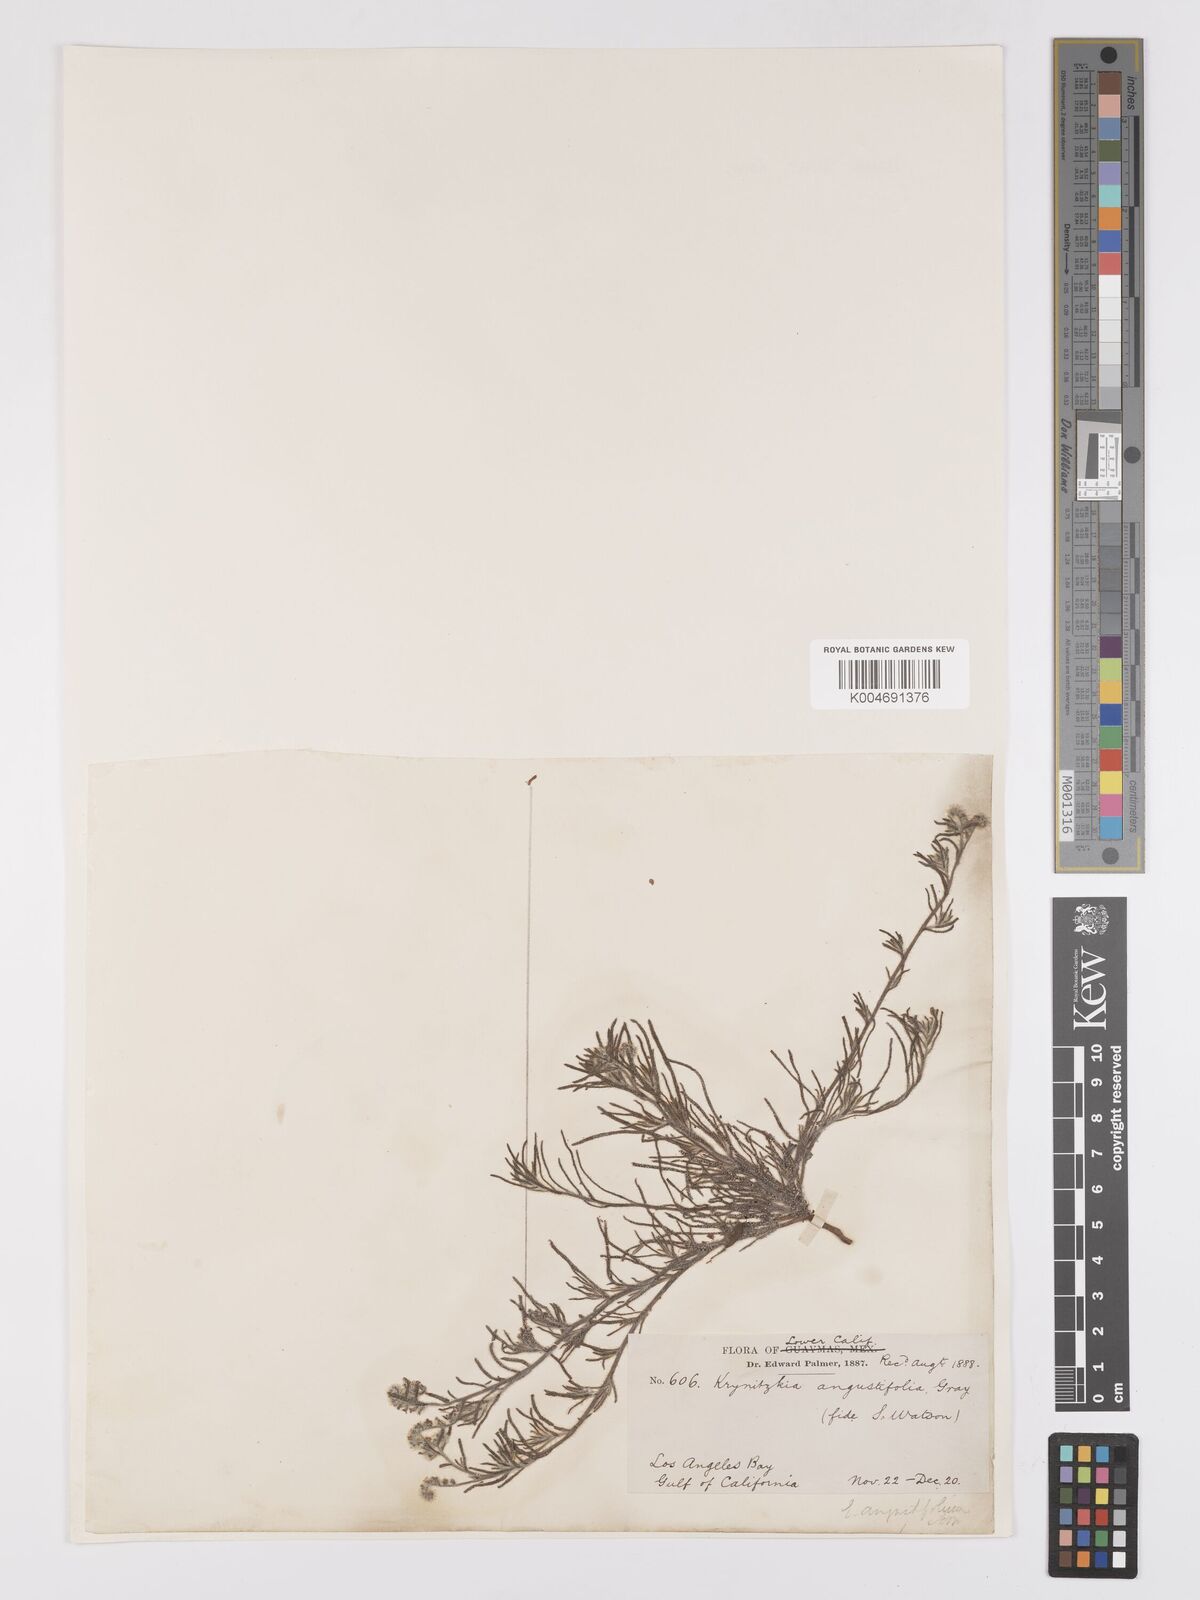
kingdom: Plantae
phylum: Tracheophyta
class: Magnoliopsida
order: Boraginales
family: Boraginaceae
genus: Johnstonella
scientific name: Johnstonella angustifolia
